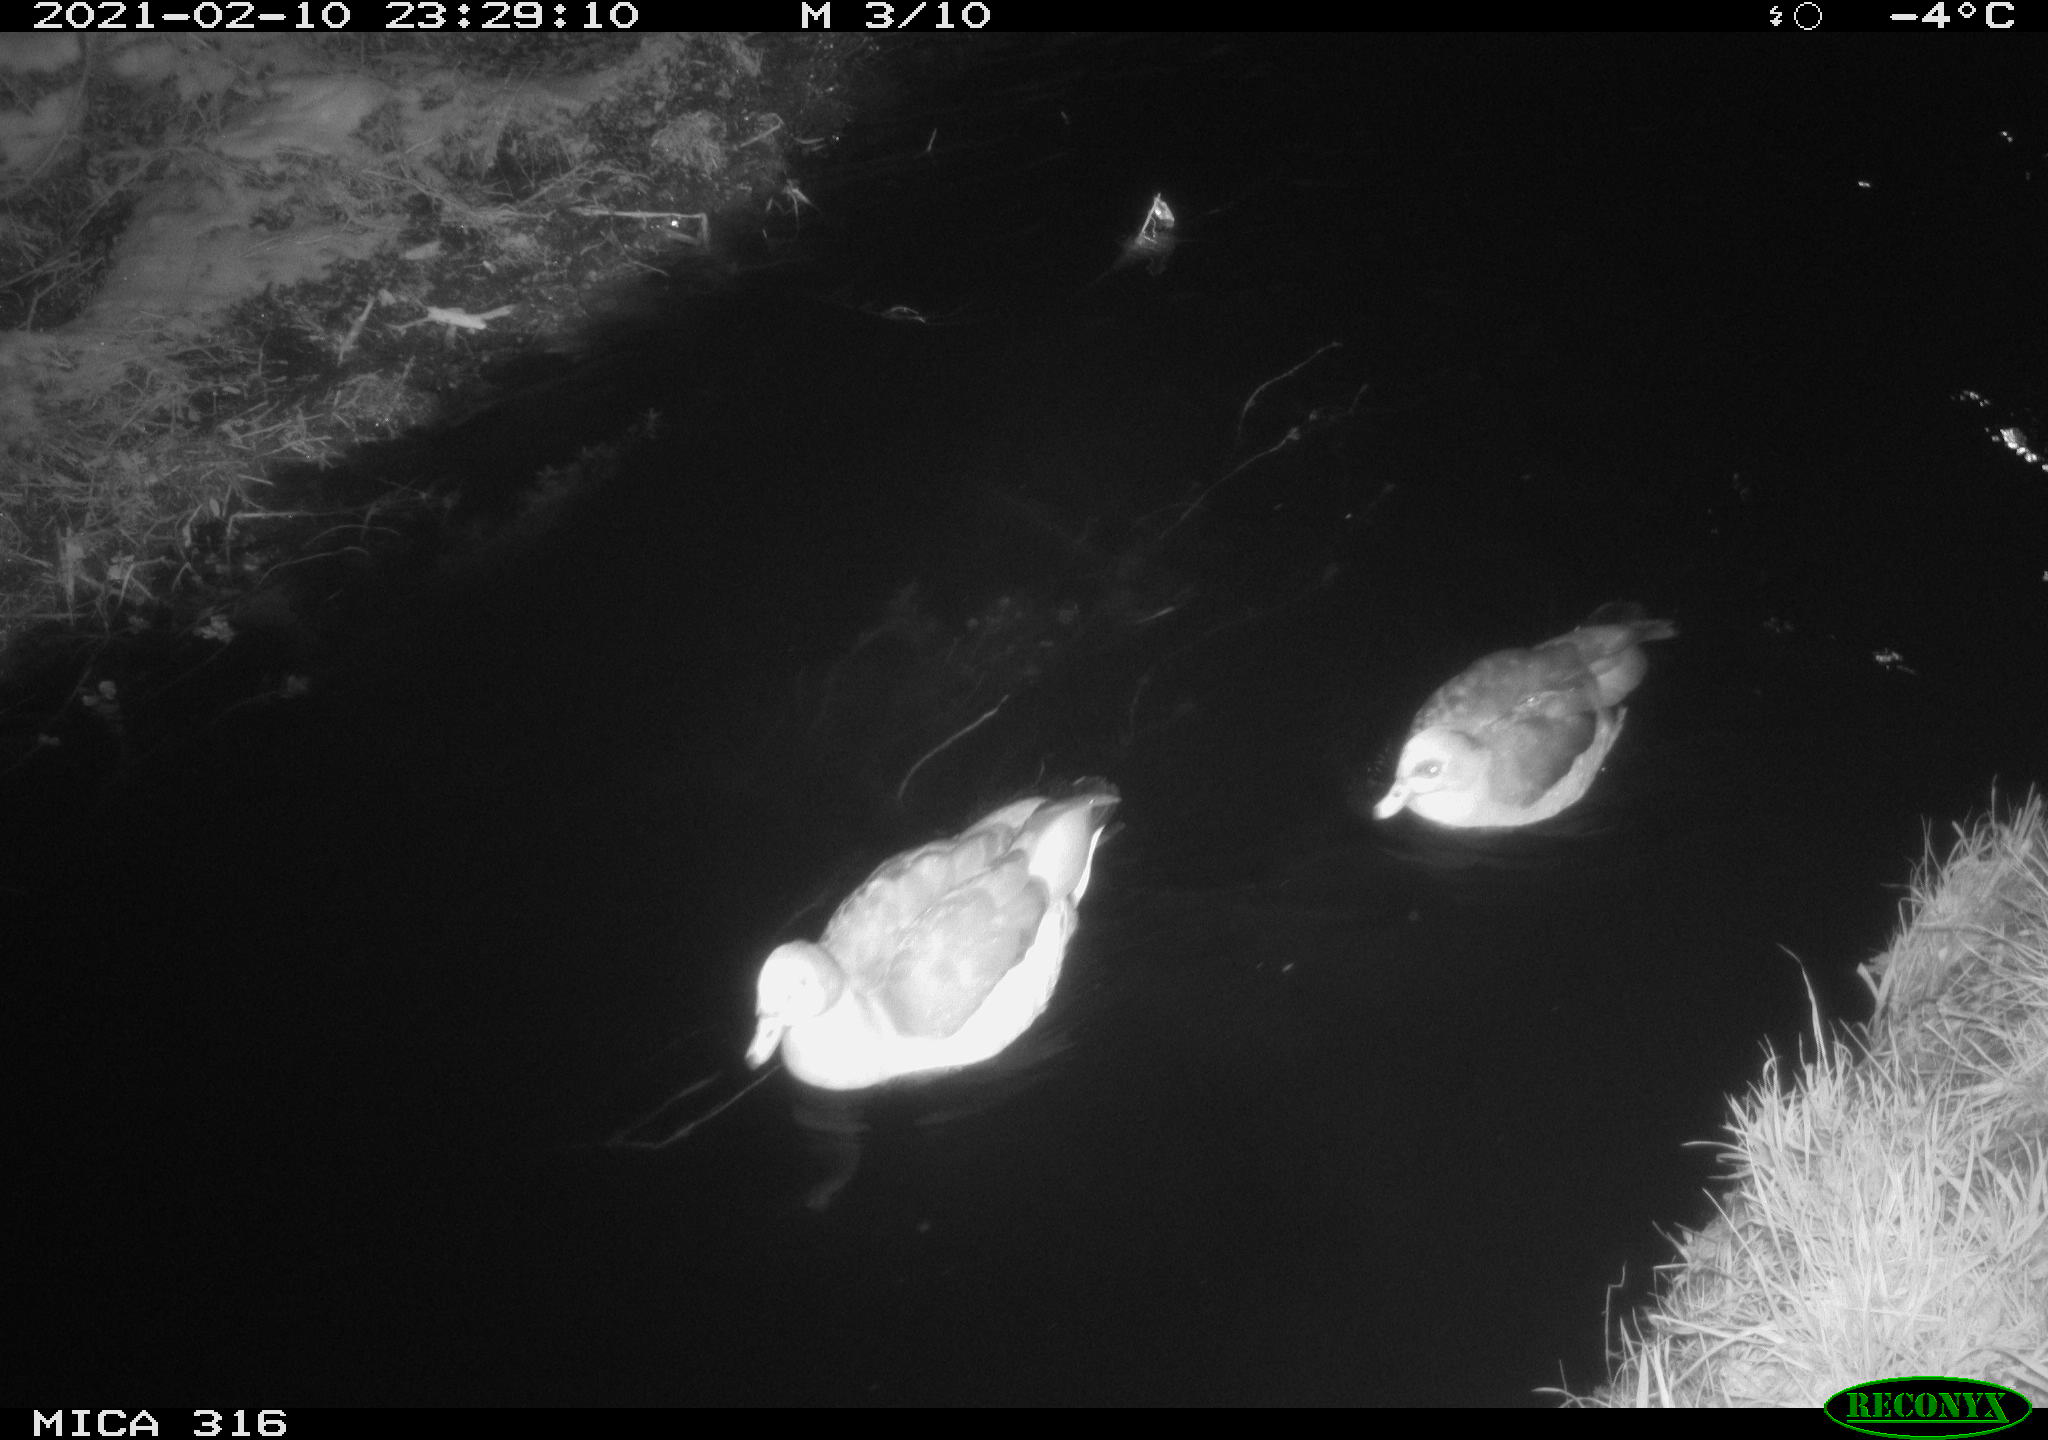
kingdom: Animalia
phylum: Chordata
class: Aves
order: Gruiformes
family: Rallidae
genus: Gallinula
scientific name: Gallinula chloropus
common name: Common moorhen
